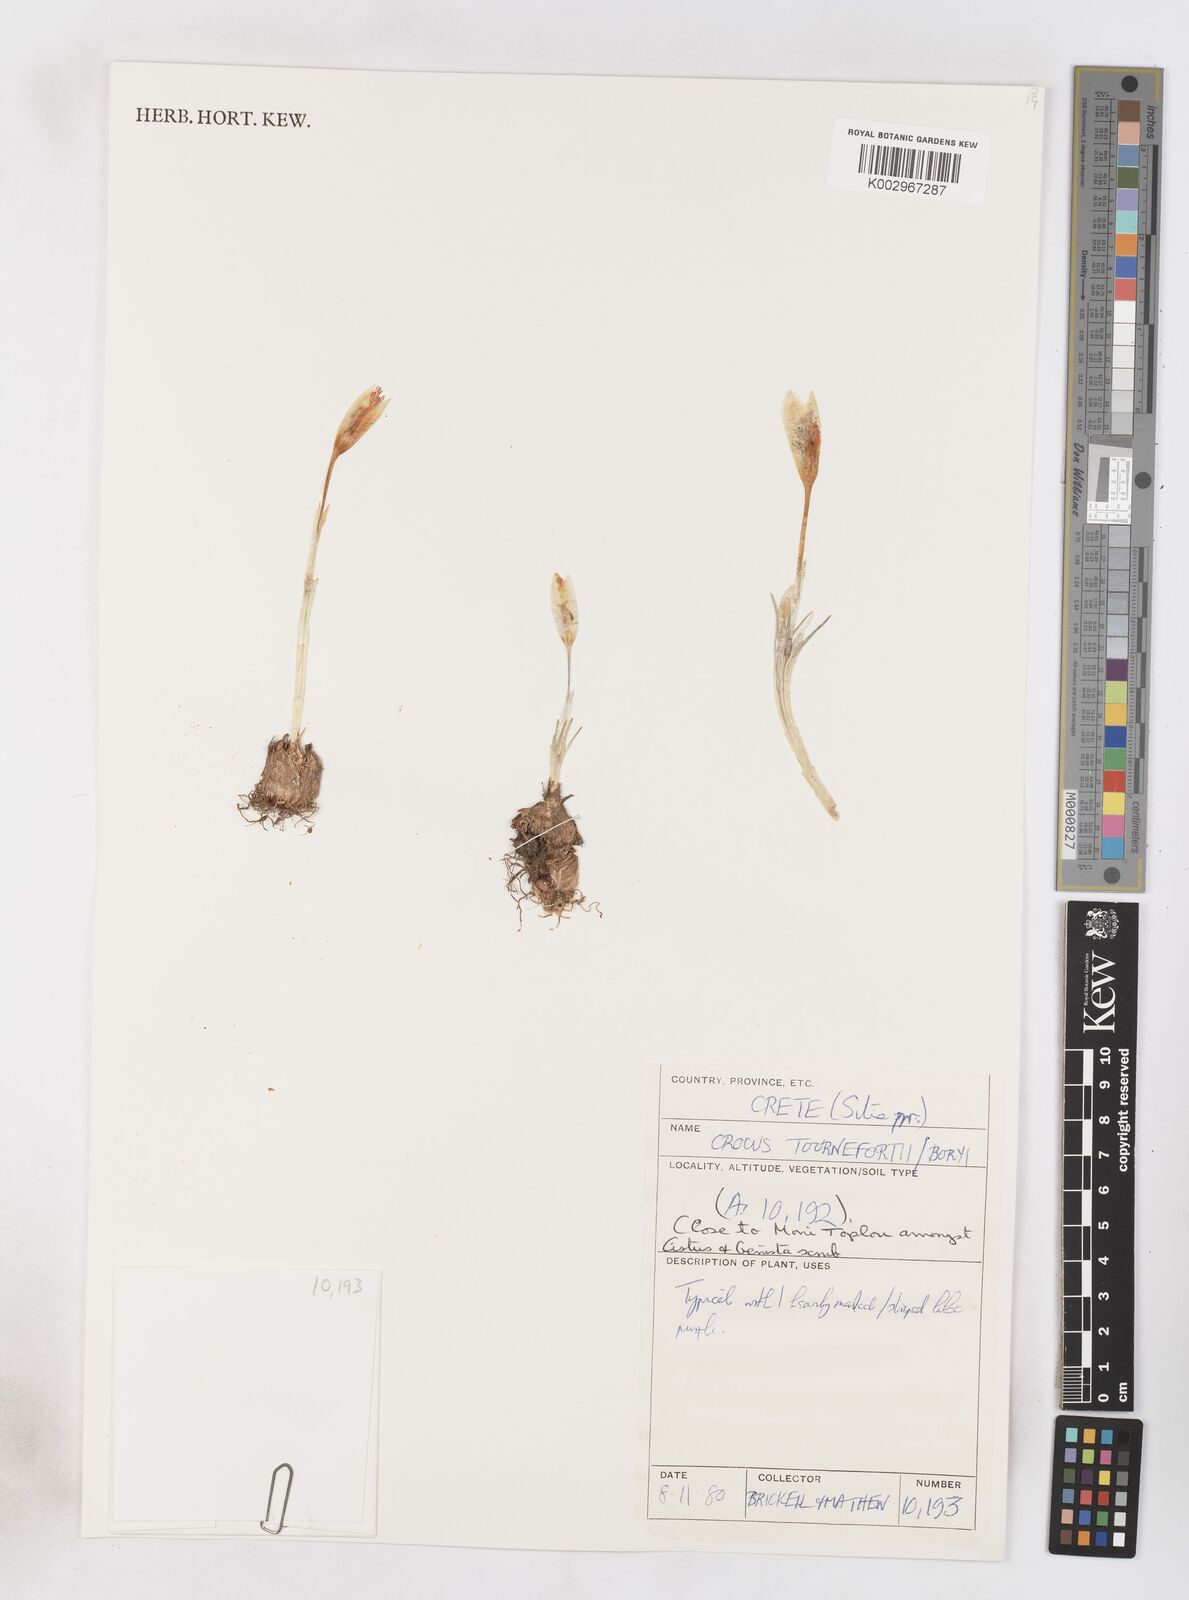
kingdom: Plantae
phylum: Tracheophyta
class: Liliopsida
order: Asparagales
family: Iridaceae
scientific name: Iridaceae
